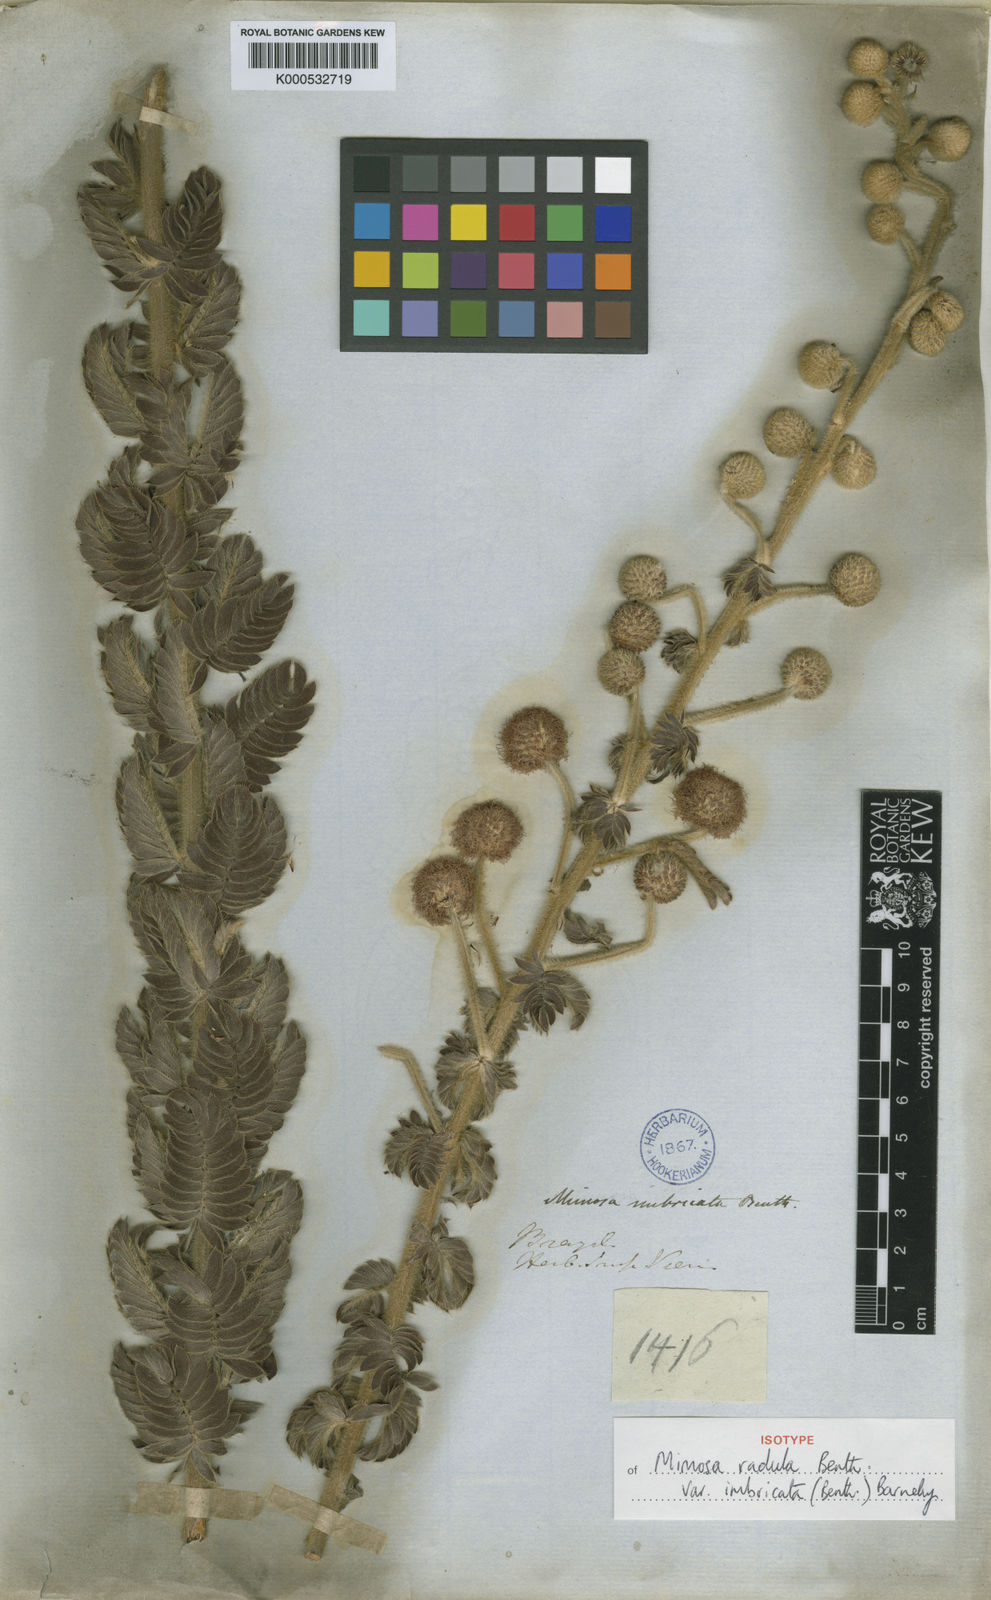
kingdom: Plantae
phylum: Tracheophyta
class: Magnoliopsida
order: Fabales
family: Fabaceae
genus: Mimosa
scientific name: Mimosa radula
